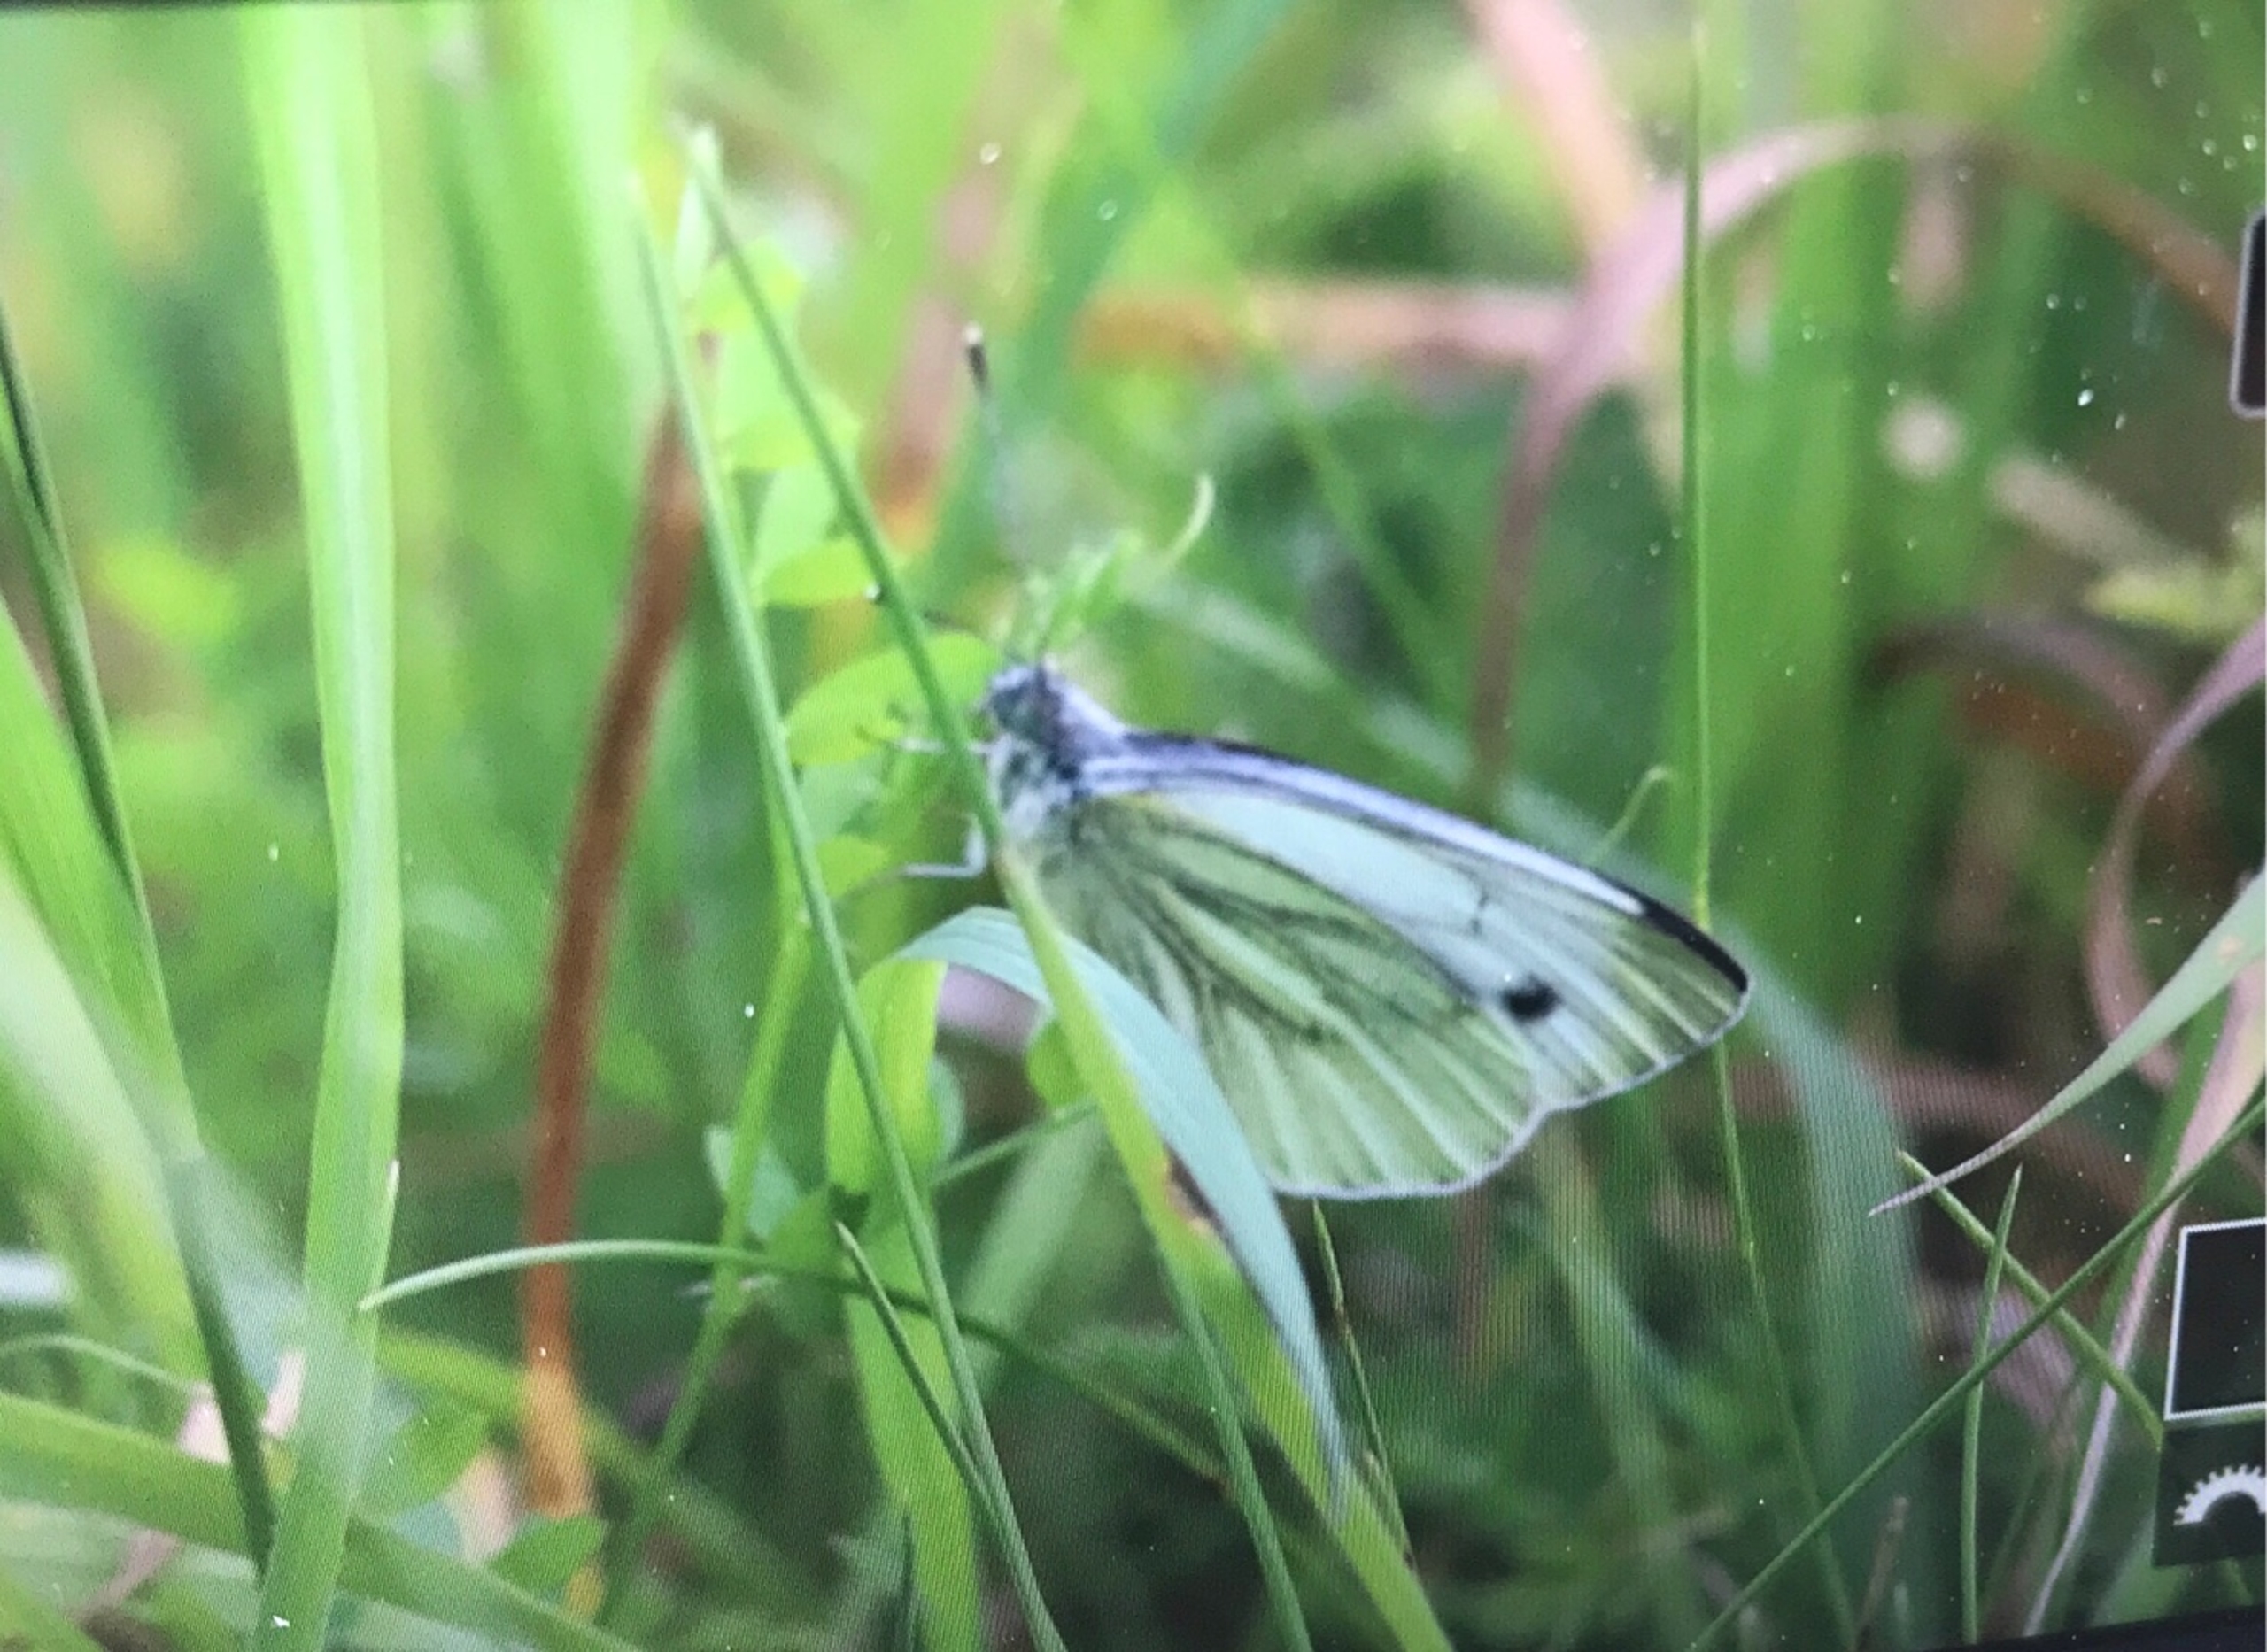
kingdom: Animalia
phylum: Arthropoda
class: Insecta
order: Lepidoptera
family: Pieridae
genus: Pieris
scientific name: Pieris napi
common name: Grønåret kålsommerfugl
